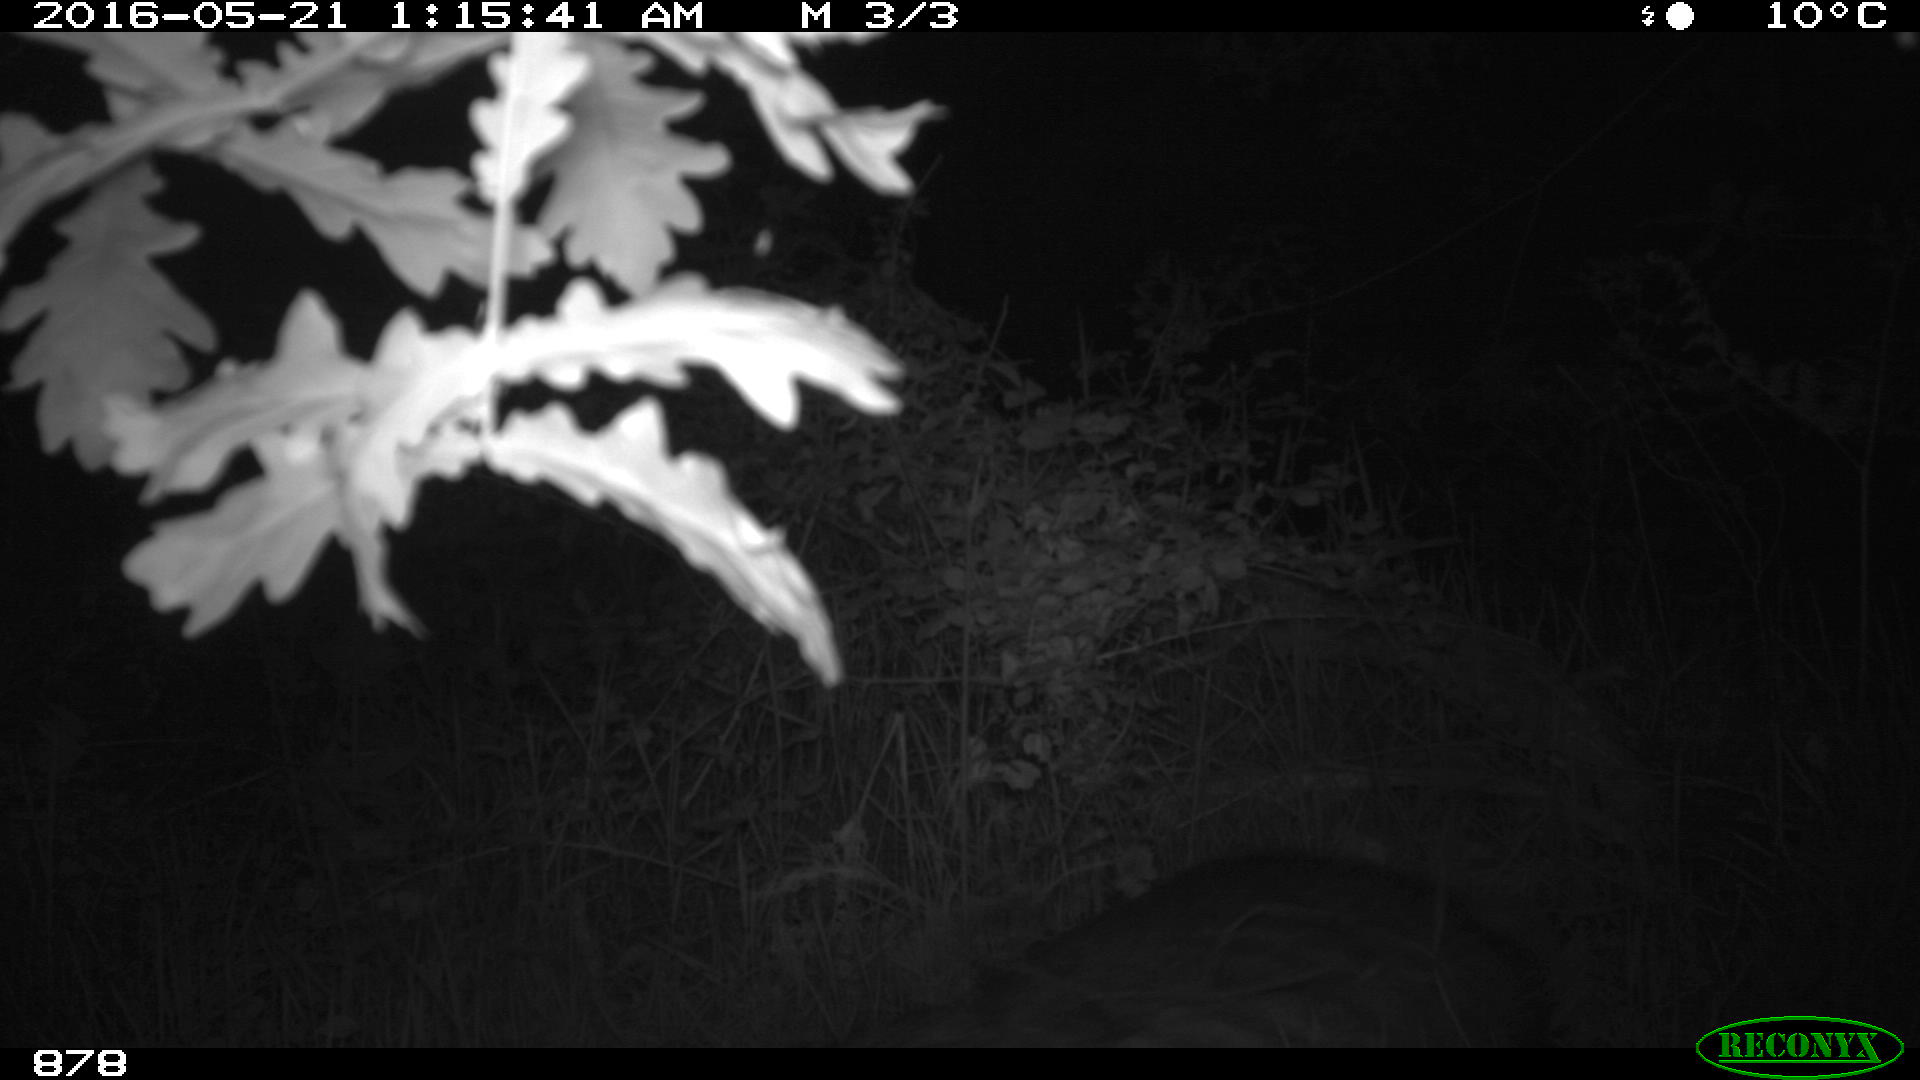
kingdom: Animalia
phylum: Chordata
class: Mammalia
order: Artiodactyla
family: Suidae
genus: Sus
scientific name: Sus scrofa
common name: Wild boar
